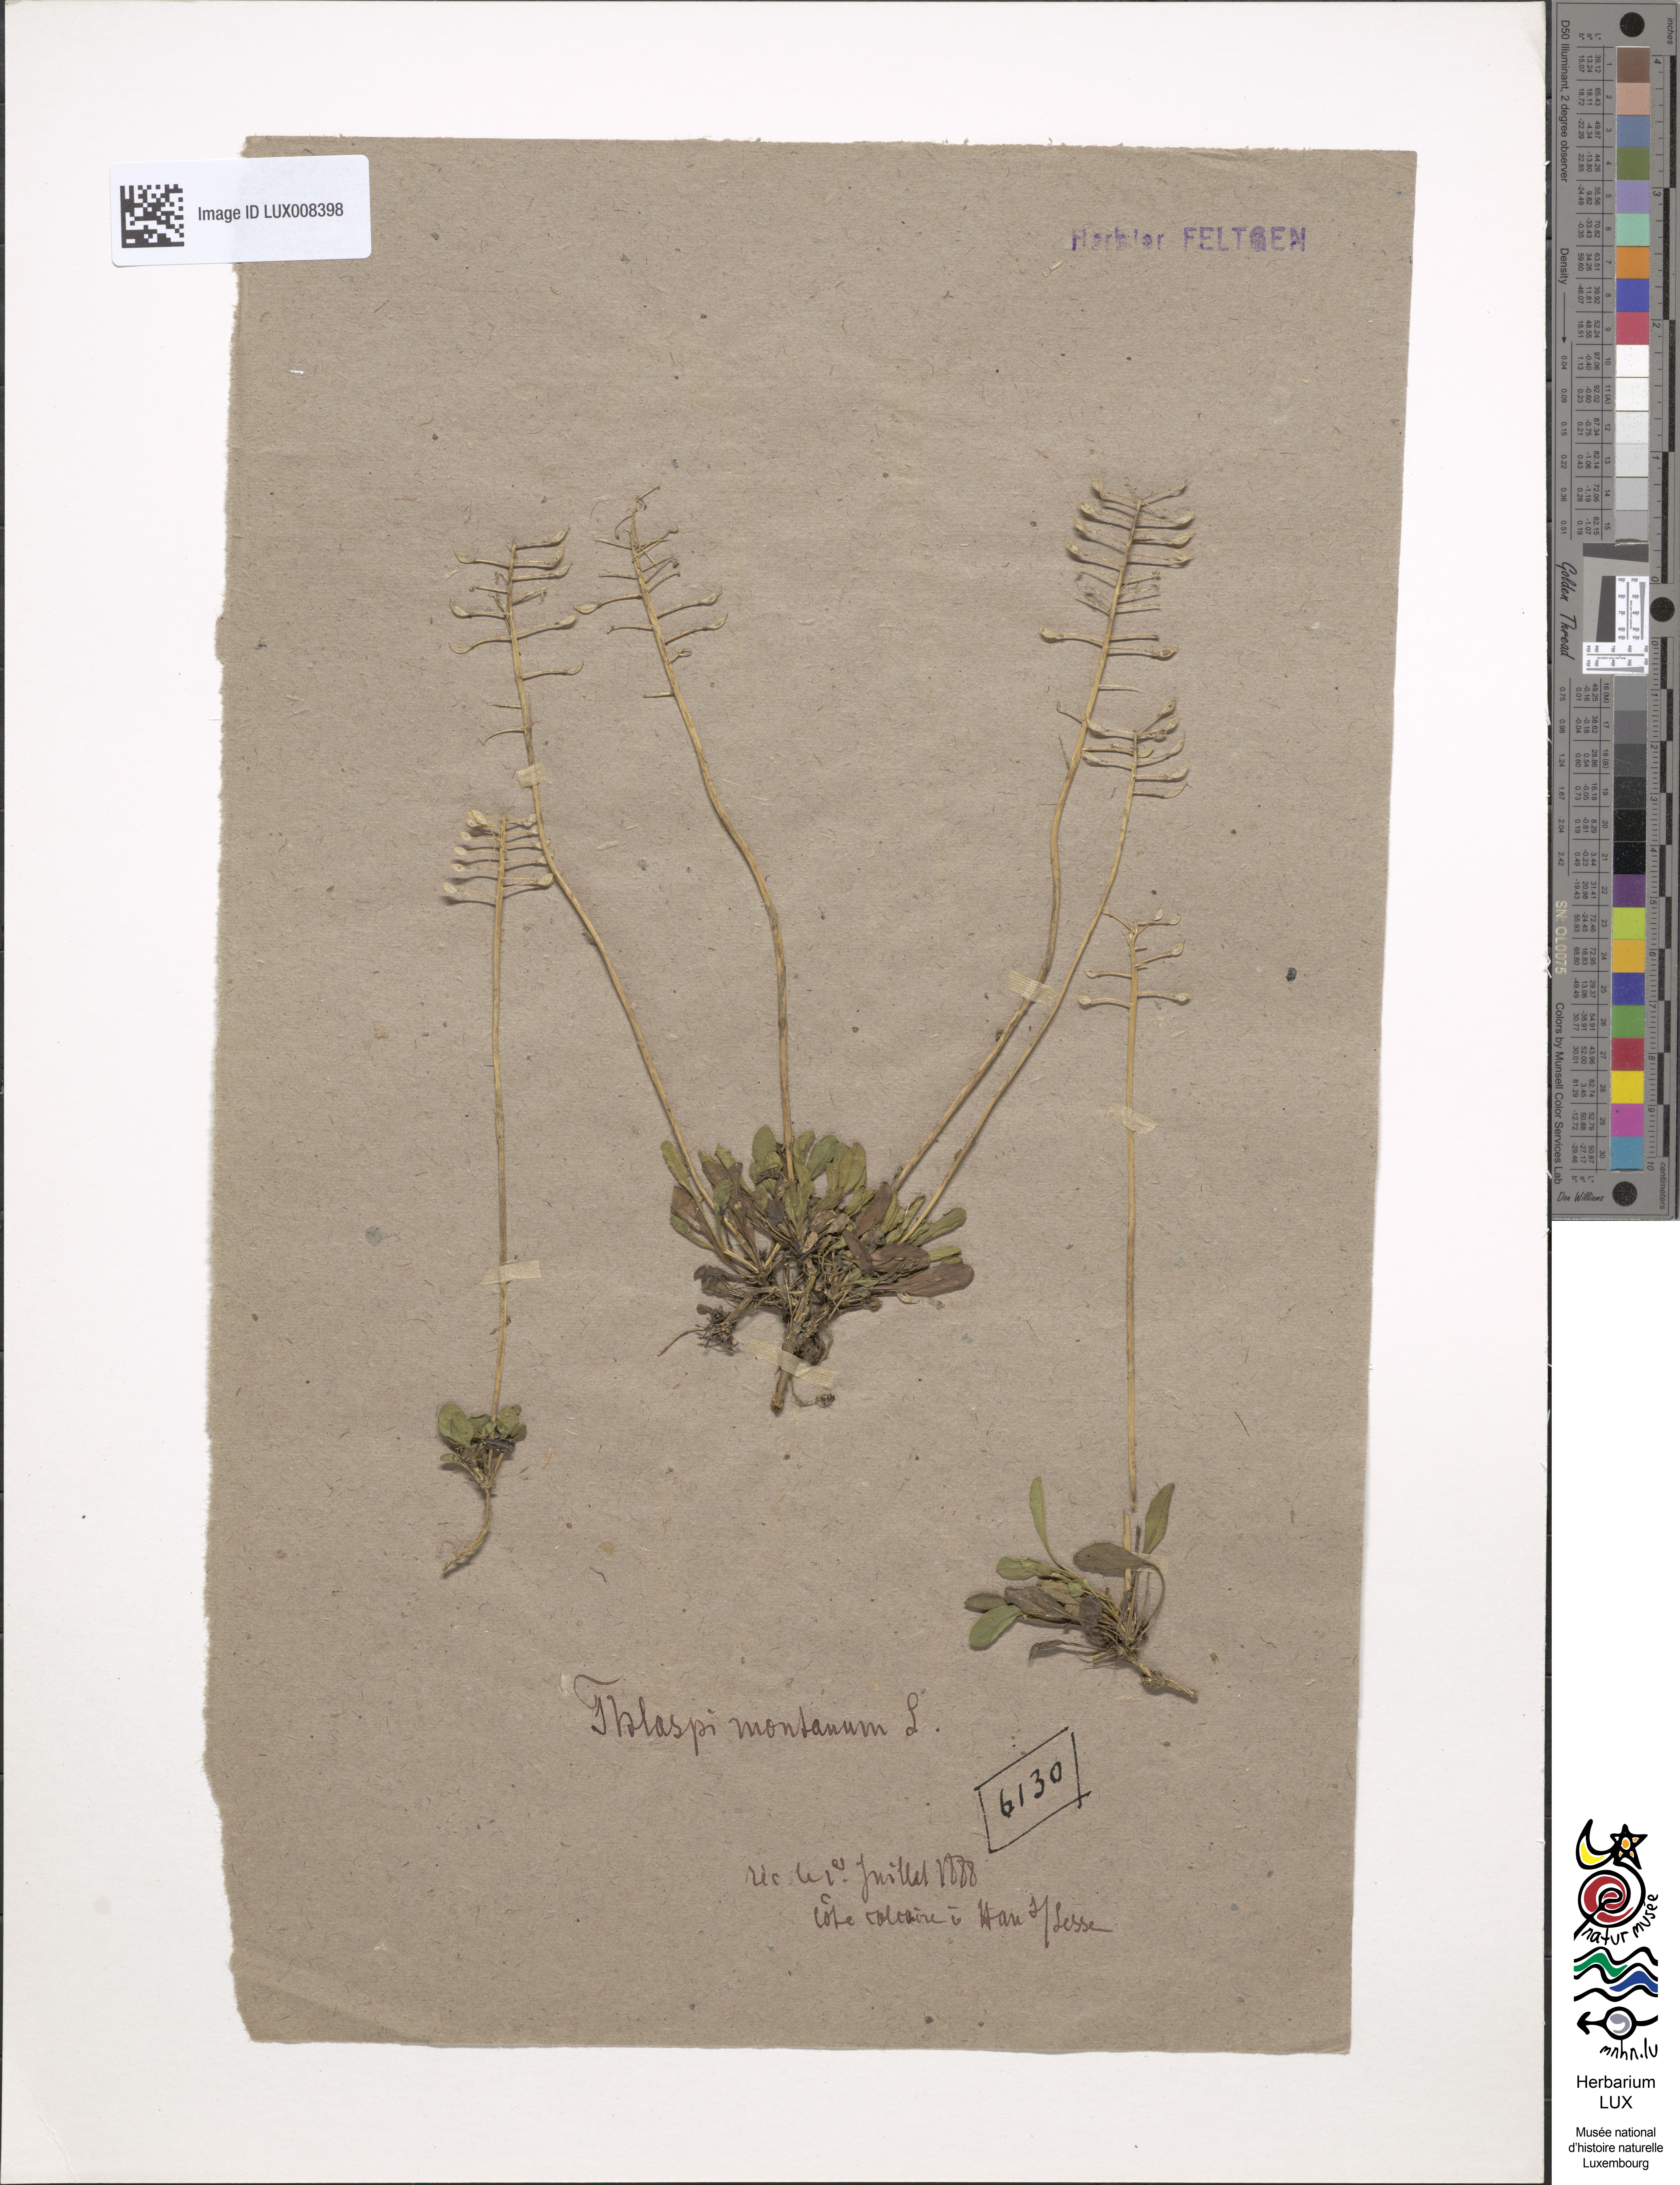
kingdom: Plantae
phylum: Tracheophyta
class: Magnoliopsida
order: Brassicales
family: Brassicaceae
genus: Noccaea
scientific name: Noccaea montana
